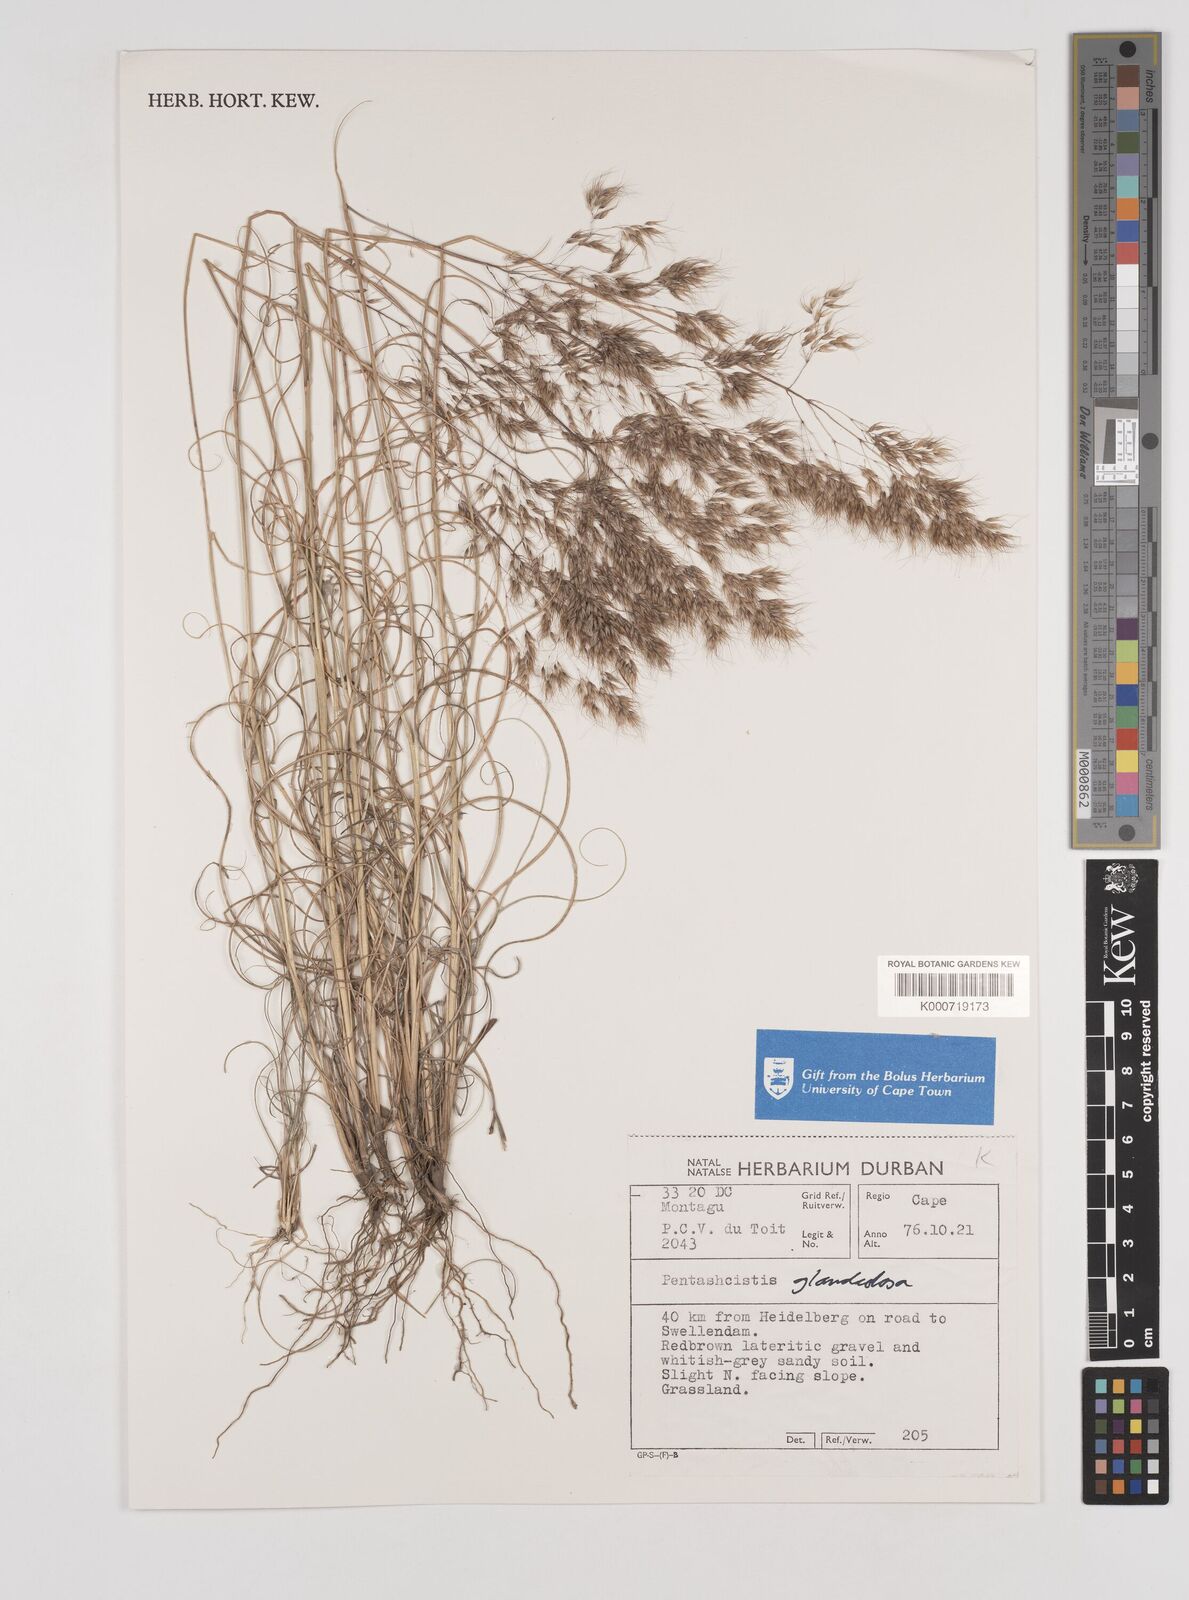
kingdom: Plantae
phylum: Tracheophyta
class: Liliopsida
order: Poales
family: Poaceae
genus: Pentameris
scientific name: Pentameris reflexa
